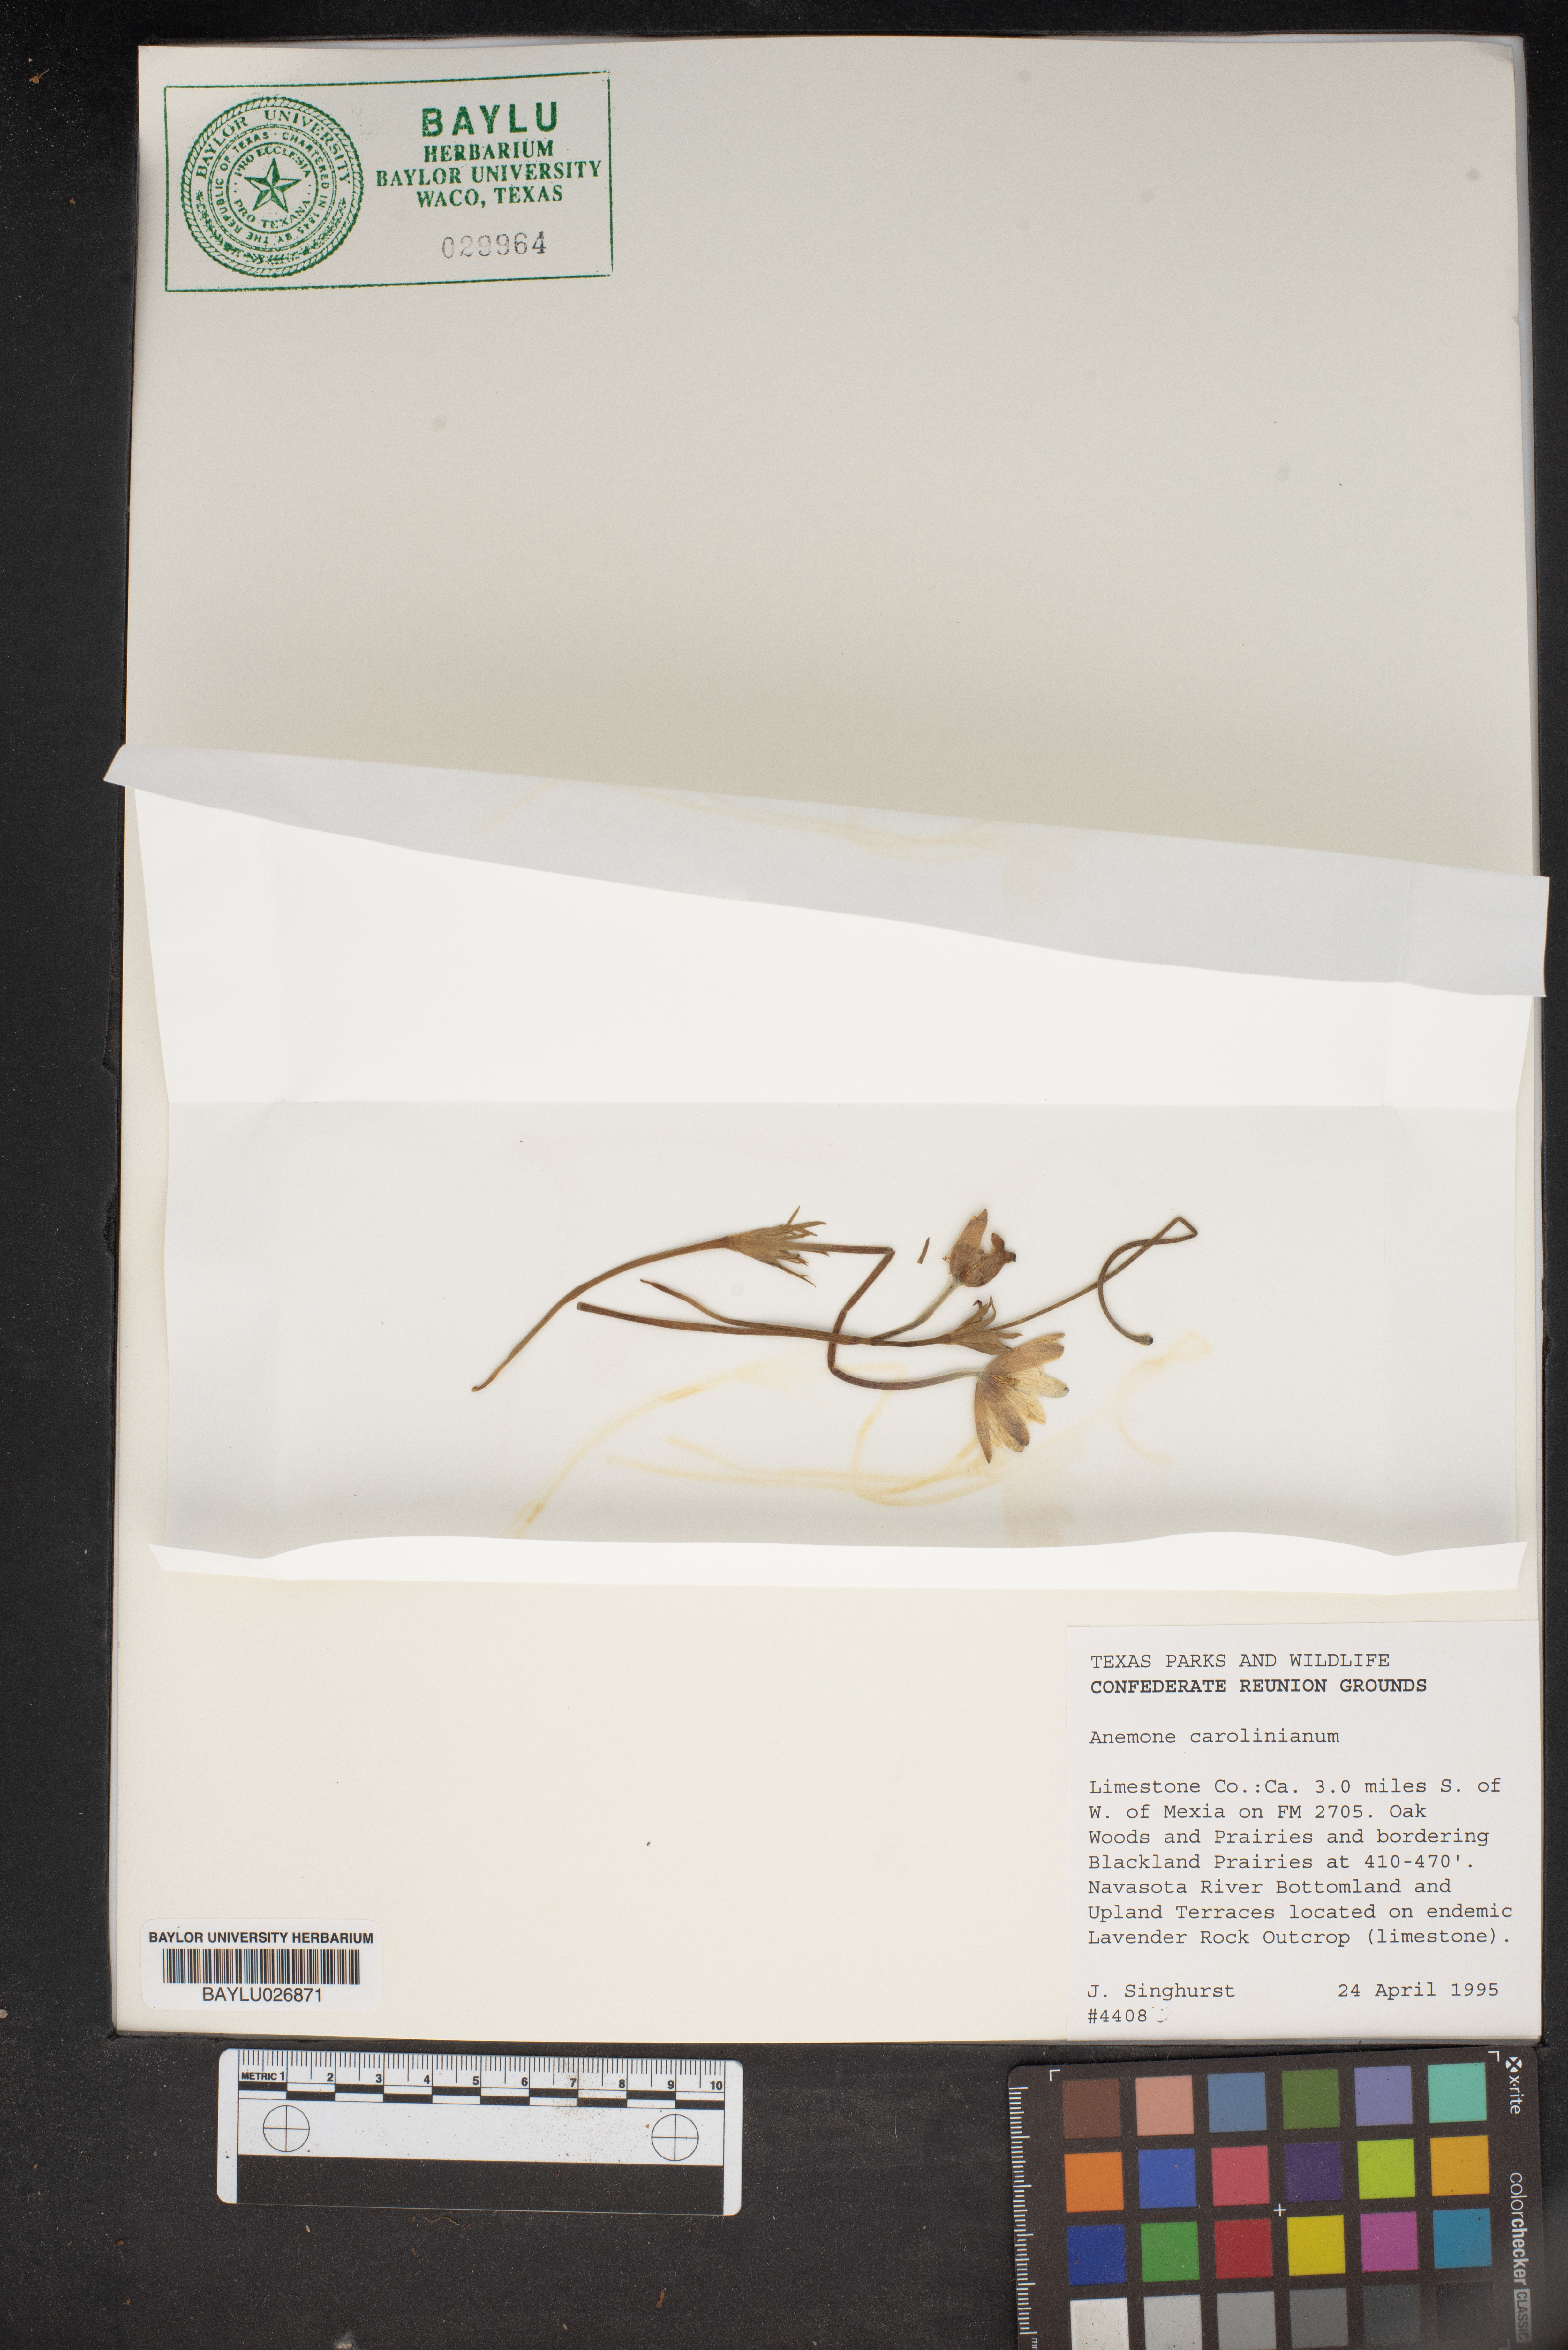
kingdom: Plantae
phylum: Tracheophyta
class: Magnoliopsida
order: Ranunculales
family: Ranunculaceae
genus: Anemone
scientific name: Anemone caroliniana
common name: Carolina anemone
